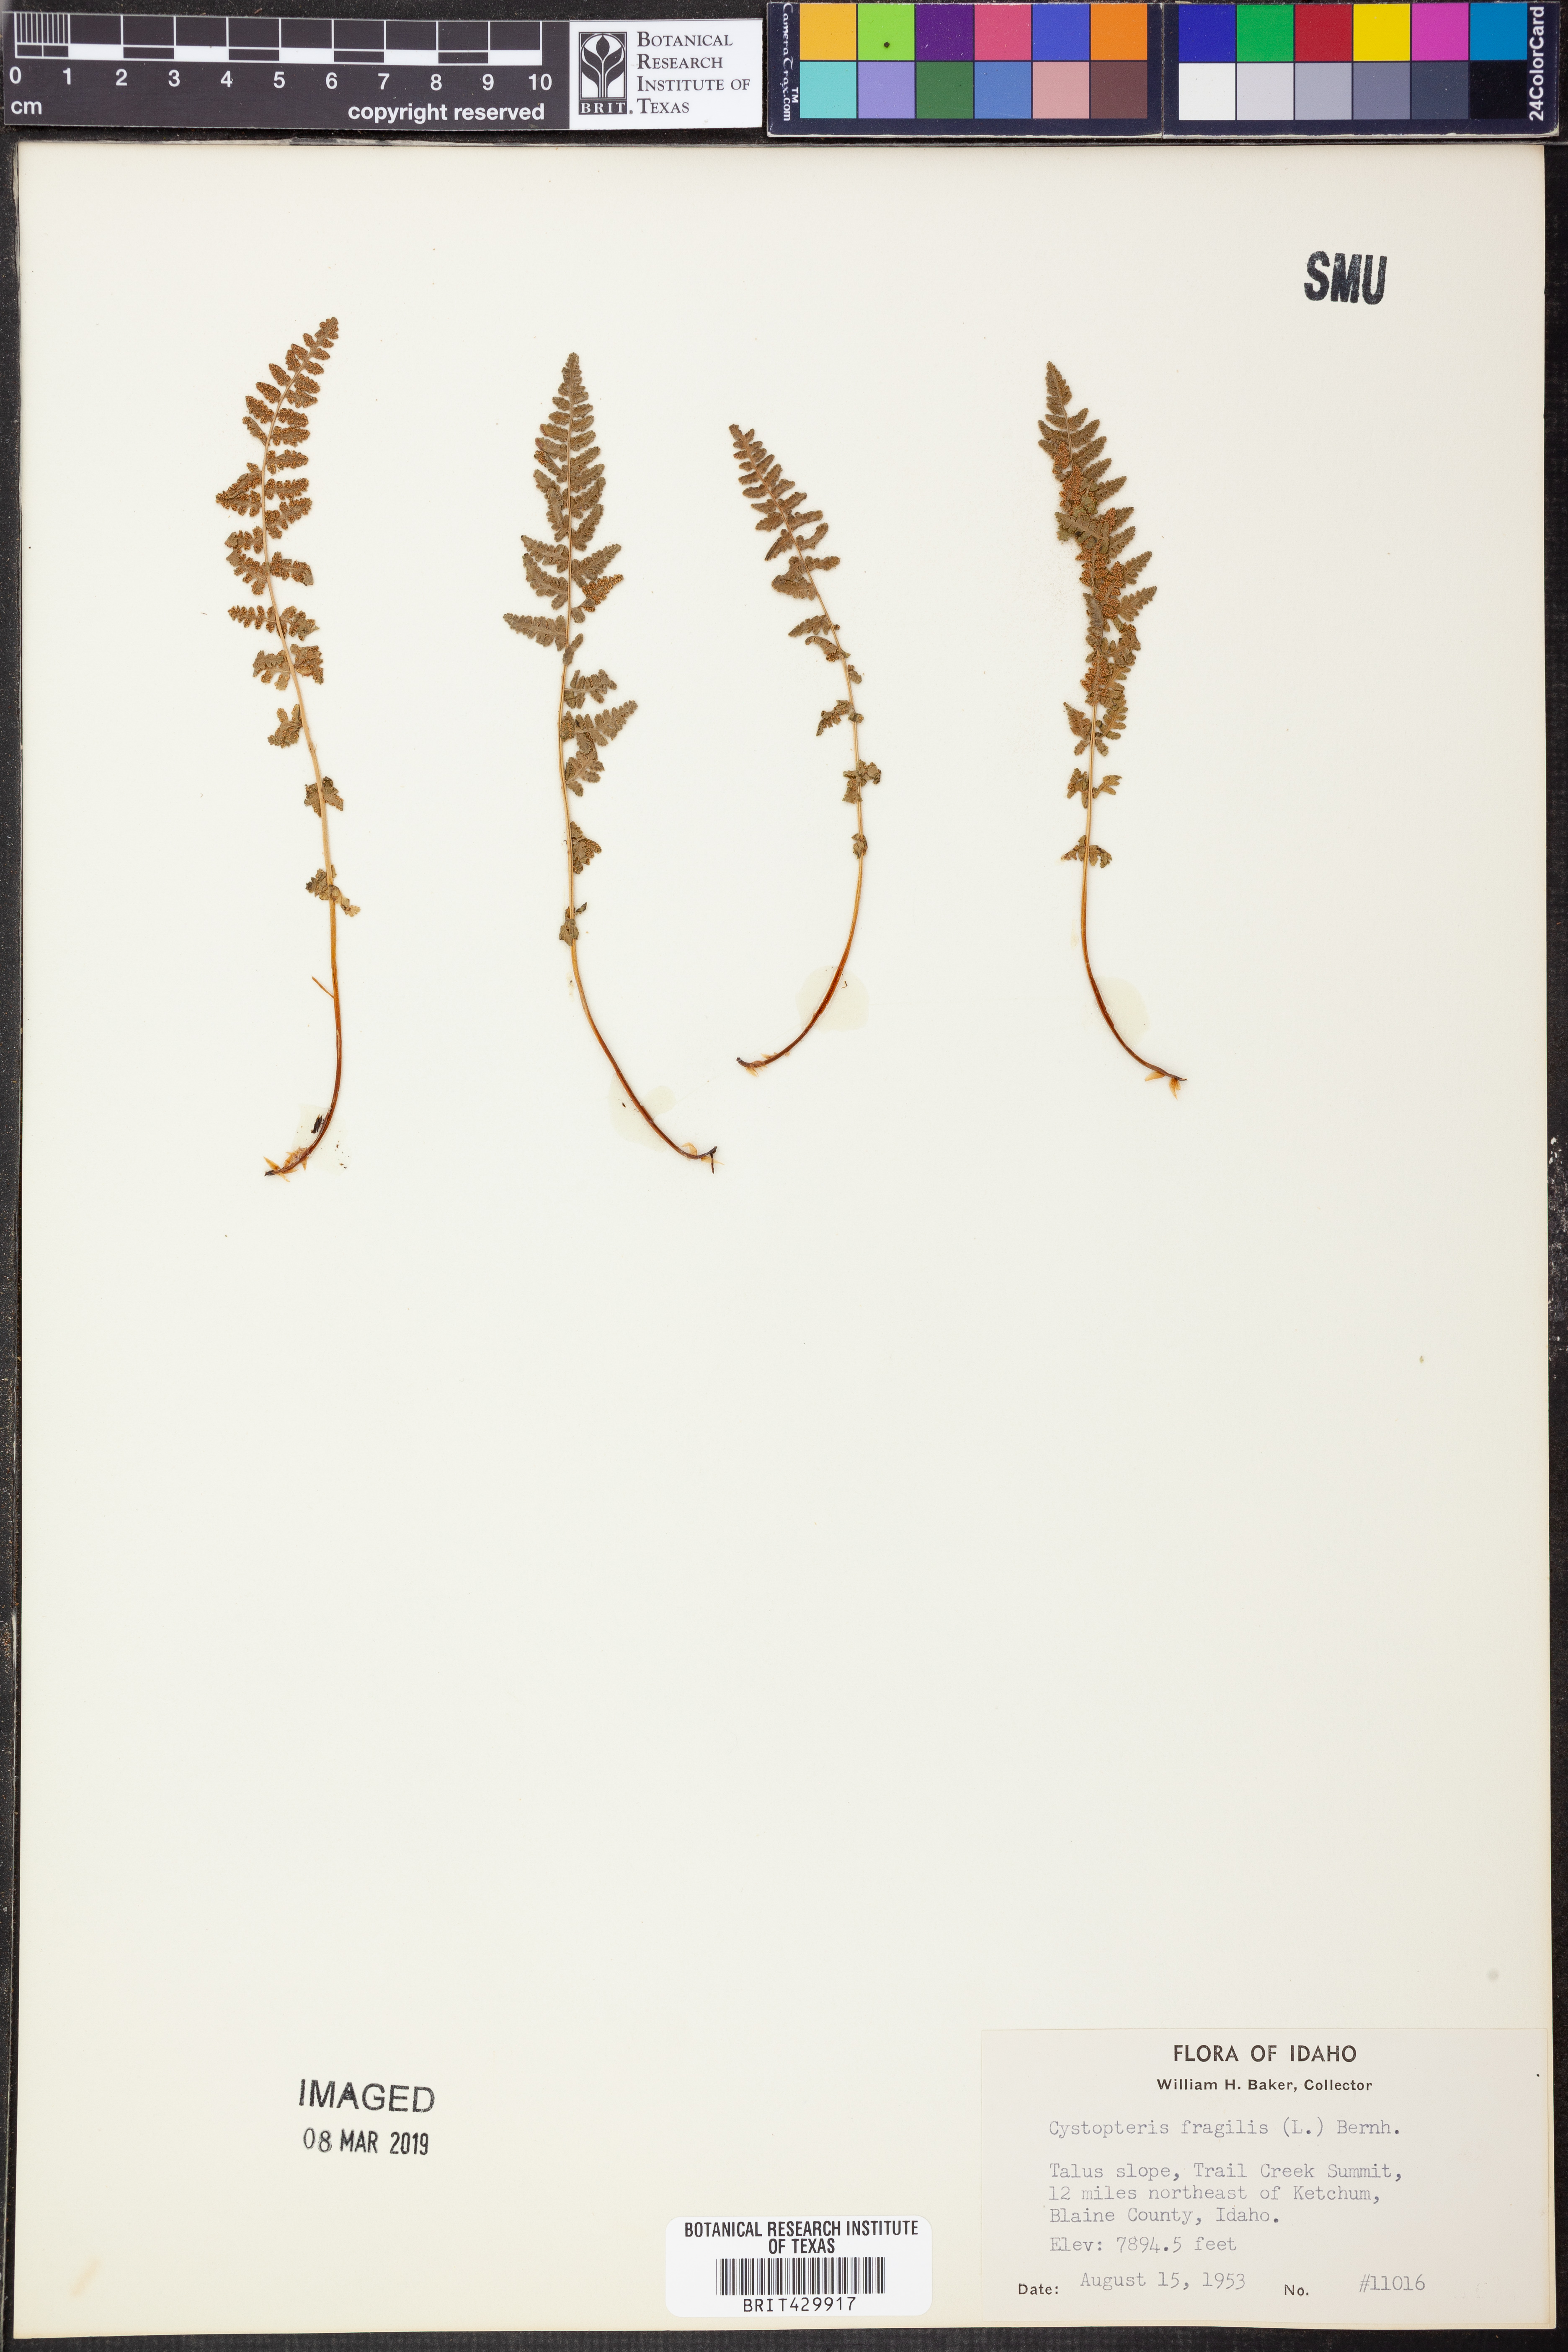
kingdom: Plantae
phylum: Tracheophyta
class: Polypodiopsida
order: Polypodiales
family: Cystopteridaceae
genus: Cystopteris
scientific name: Cystopteris fragilis
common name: Brittle bladder fern
